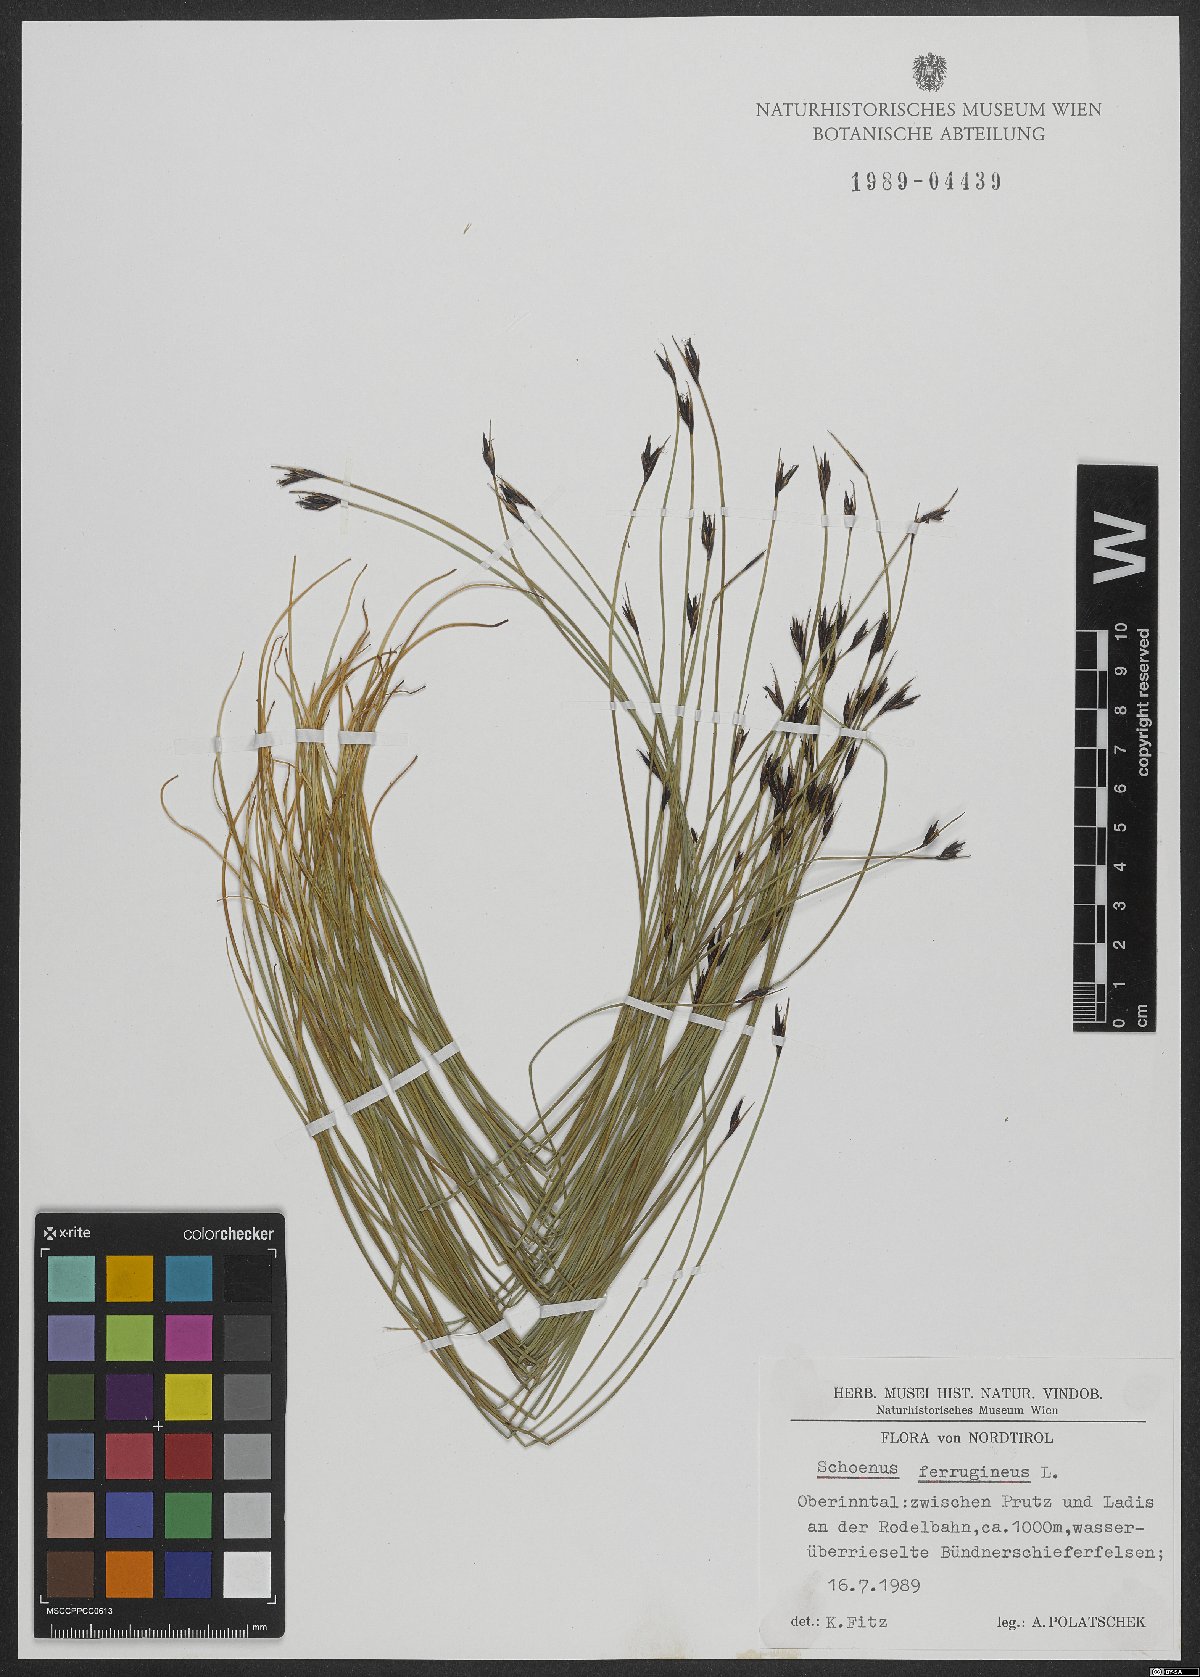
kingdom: Plantae
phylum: Tracheophyta
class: Liliopsida
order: Poales
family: Cyperaceae
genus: Schoenus
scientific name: Schoenus ferrugineus
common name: Brown bog-rush
